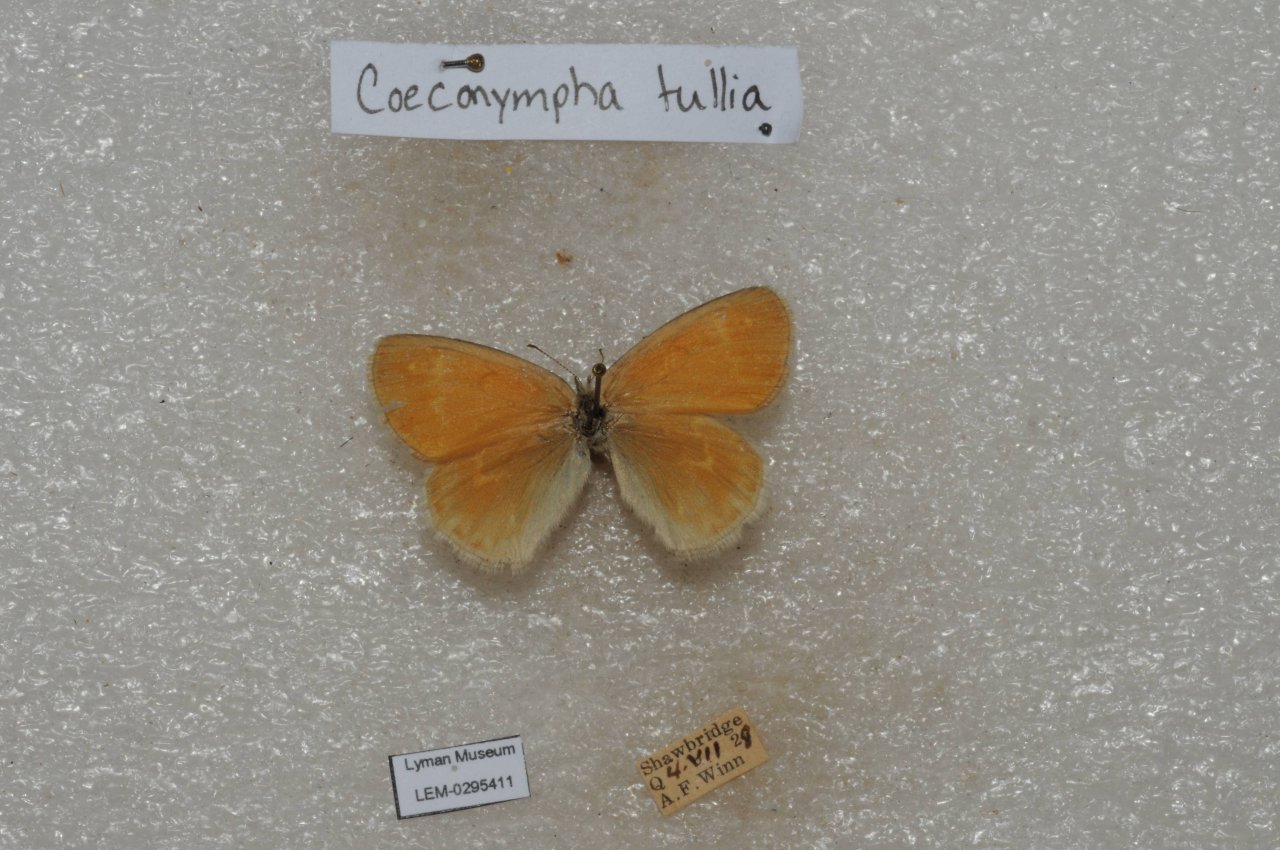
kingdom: Animalia
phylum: Arthropoda
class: Insecta
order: Lepidoptera
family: Nymphalidae
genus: Coenonympha
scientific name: Coenonympha tullia
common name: Large Heath
